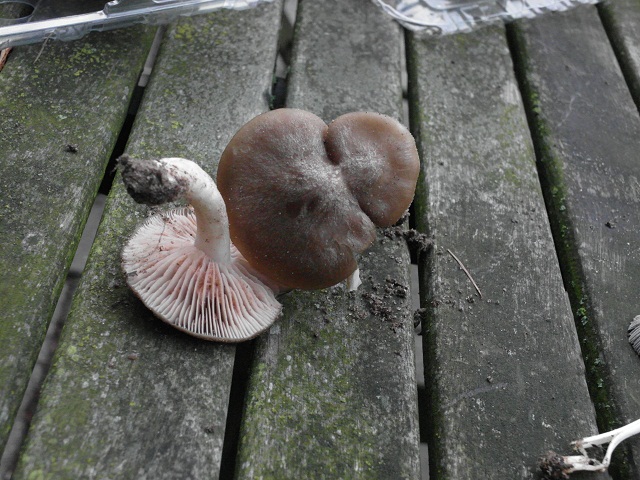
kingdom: Fungi
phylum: Basidiomycota
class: Agaricomycetes
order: Agaricales
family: Entolomataceae
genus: Entoloma
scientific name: Entoloma clypeatum
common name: flammet rødblad
